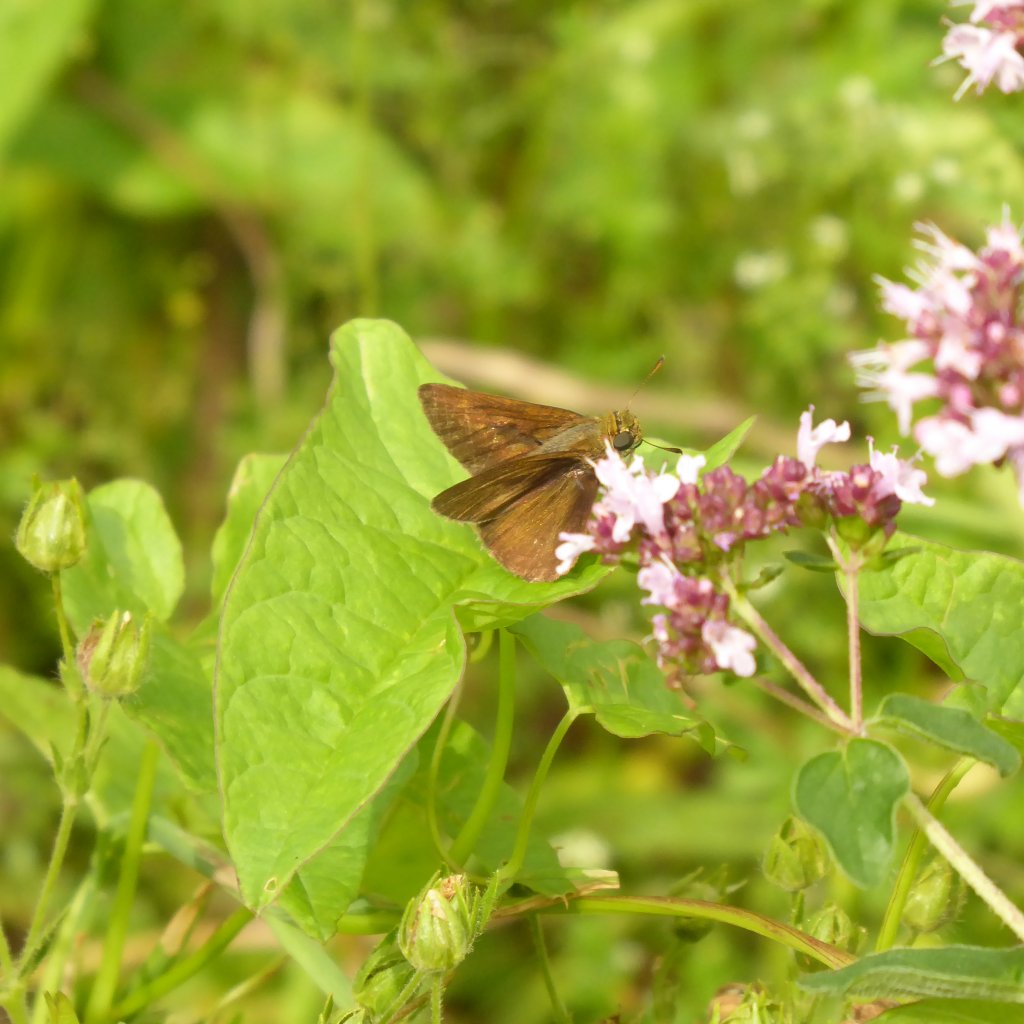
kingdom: Animalia
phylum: Arthropoda
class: Insecta
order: Lepidoptera
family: Hesperiidae
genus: Euphyes
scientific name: Euphyes vestris
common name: Dun Skipper
